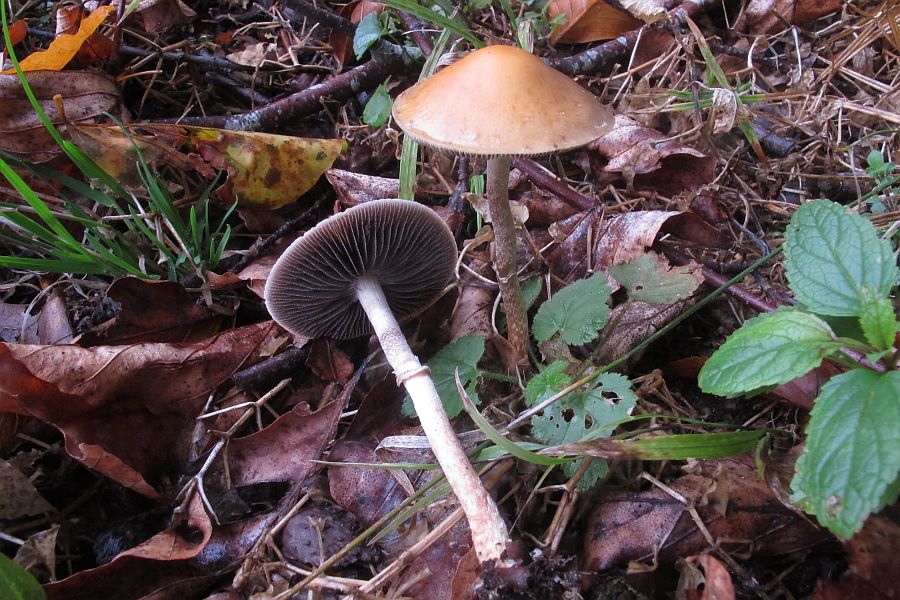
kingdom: Fungi
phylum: Basidiomycota
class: Agaricomycetes
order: Agaricales
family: Strophariaceae
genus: Leratiomyces
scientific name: Leratiomyces squamosus
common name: skællet bredblad
